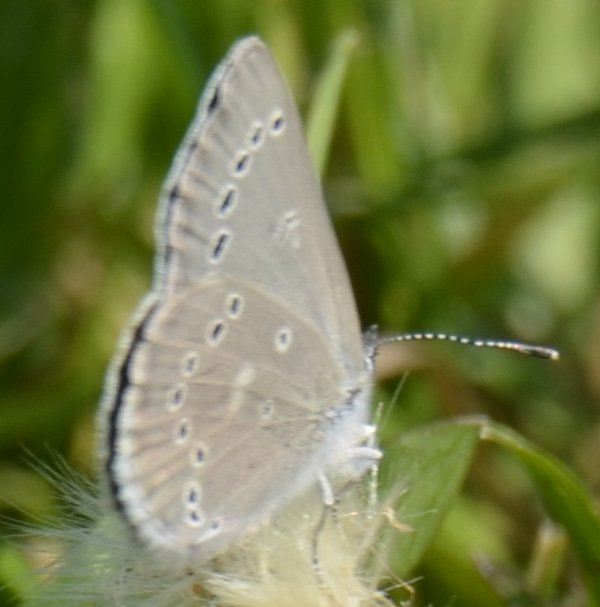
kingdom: Animalia
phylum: Arthropoda
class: Insecta
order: Lepidoptera
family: Lycaenidae
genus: Glaucopsyche
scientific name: Glaucopsyche lygdamus
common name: Silvery Blue
